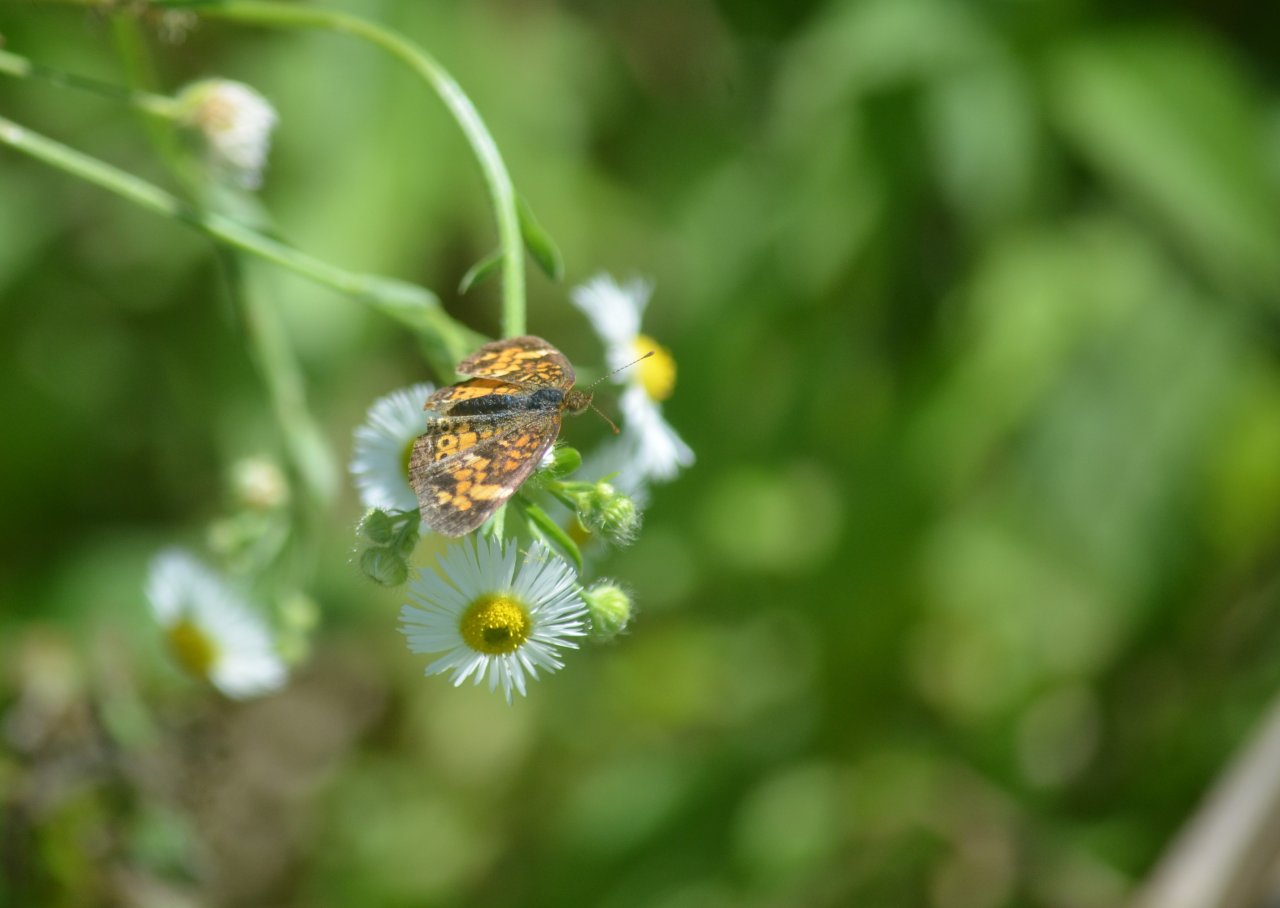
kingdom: Animalia
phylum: Arthropoda
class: Insecta
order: Lepidoptera
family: Nymphalidae
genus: Phyciodes
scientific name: Phyciodes tharos
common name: Pearl Crescent
